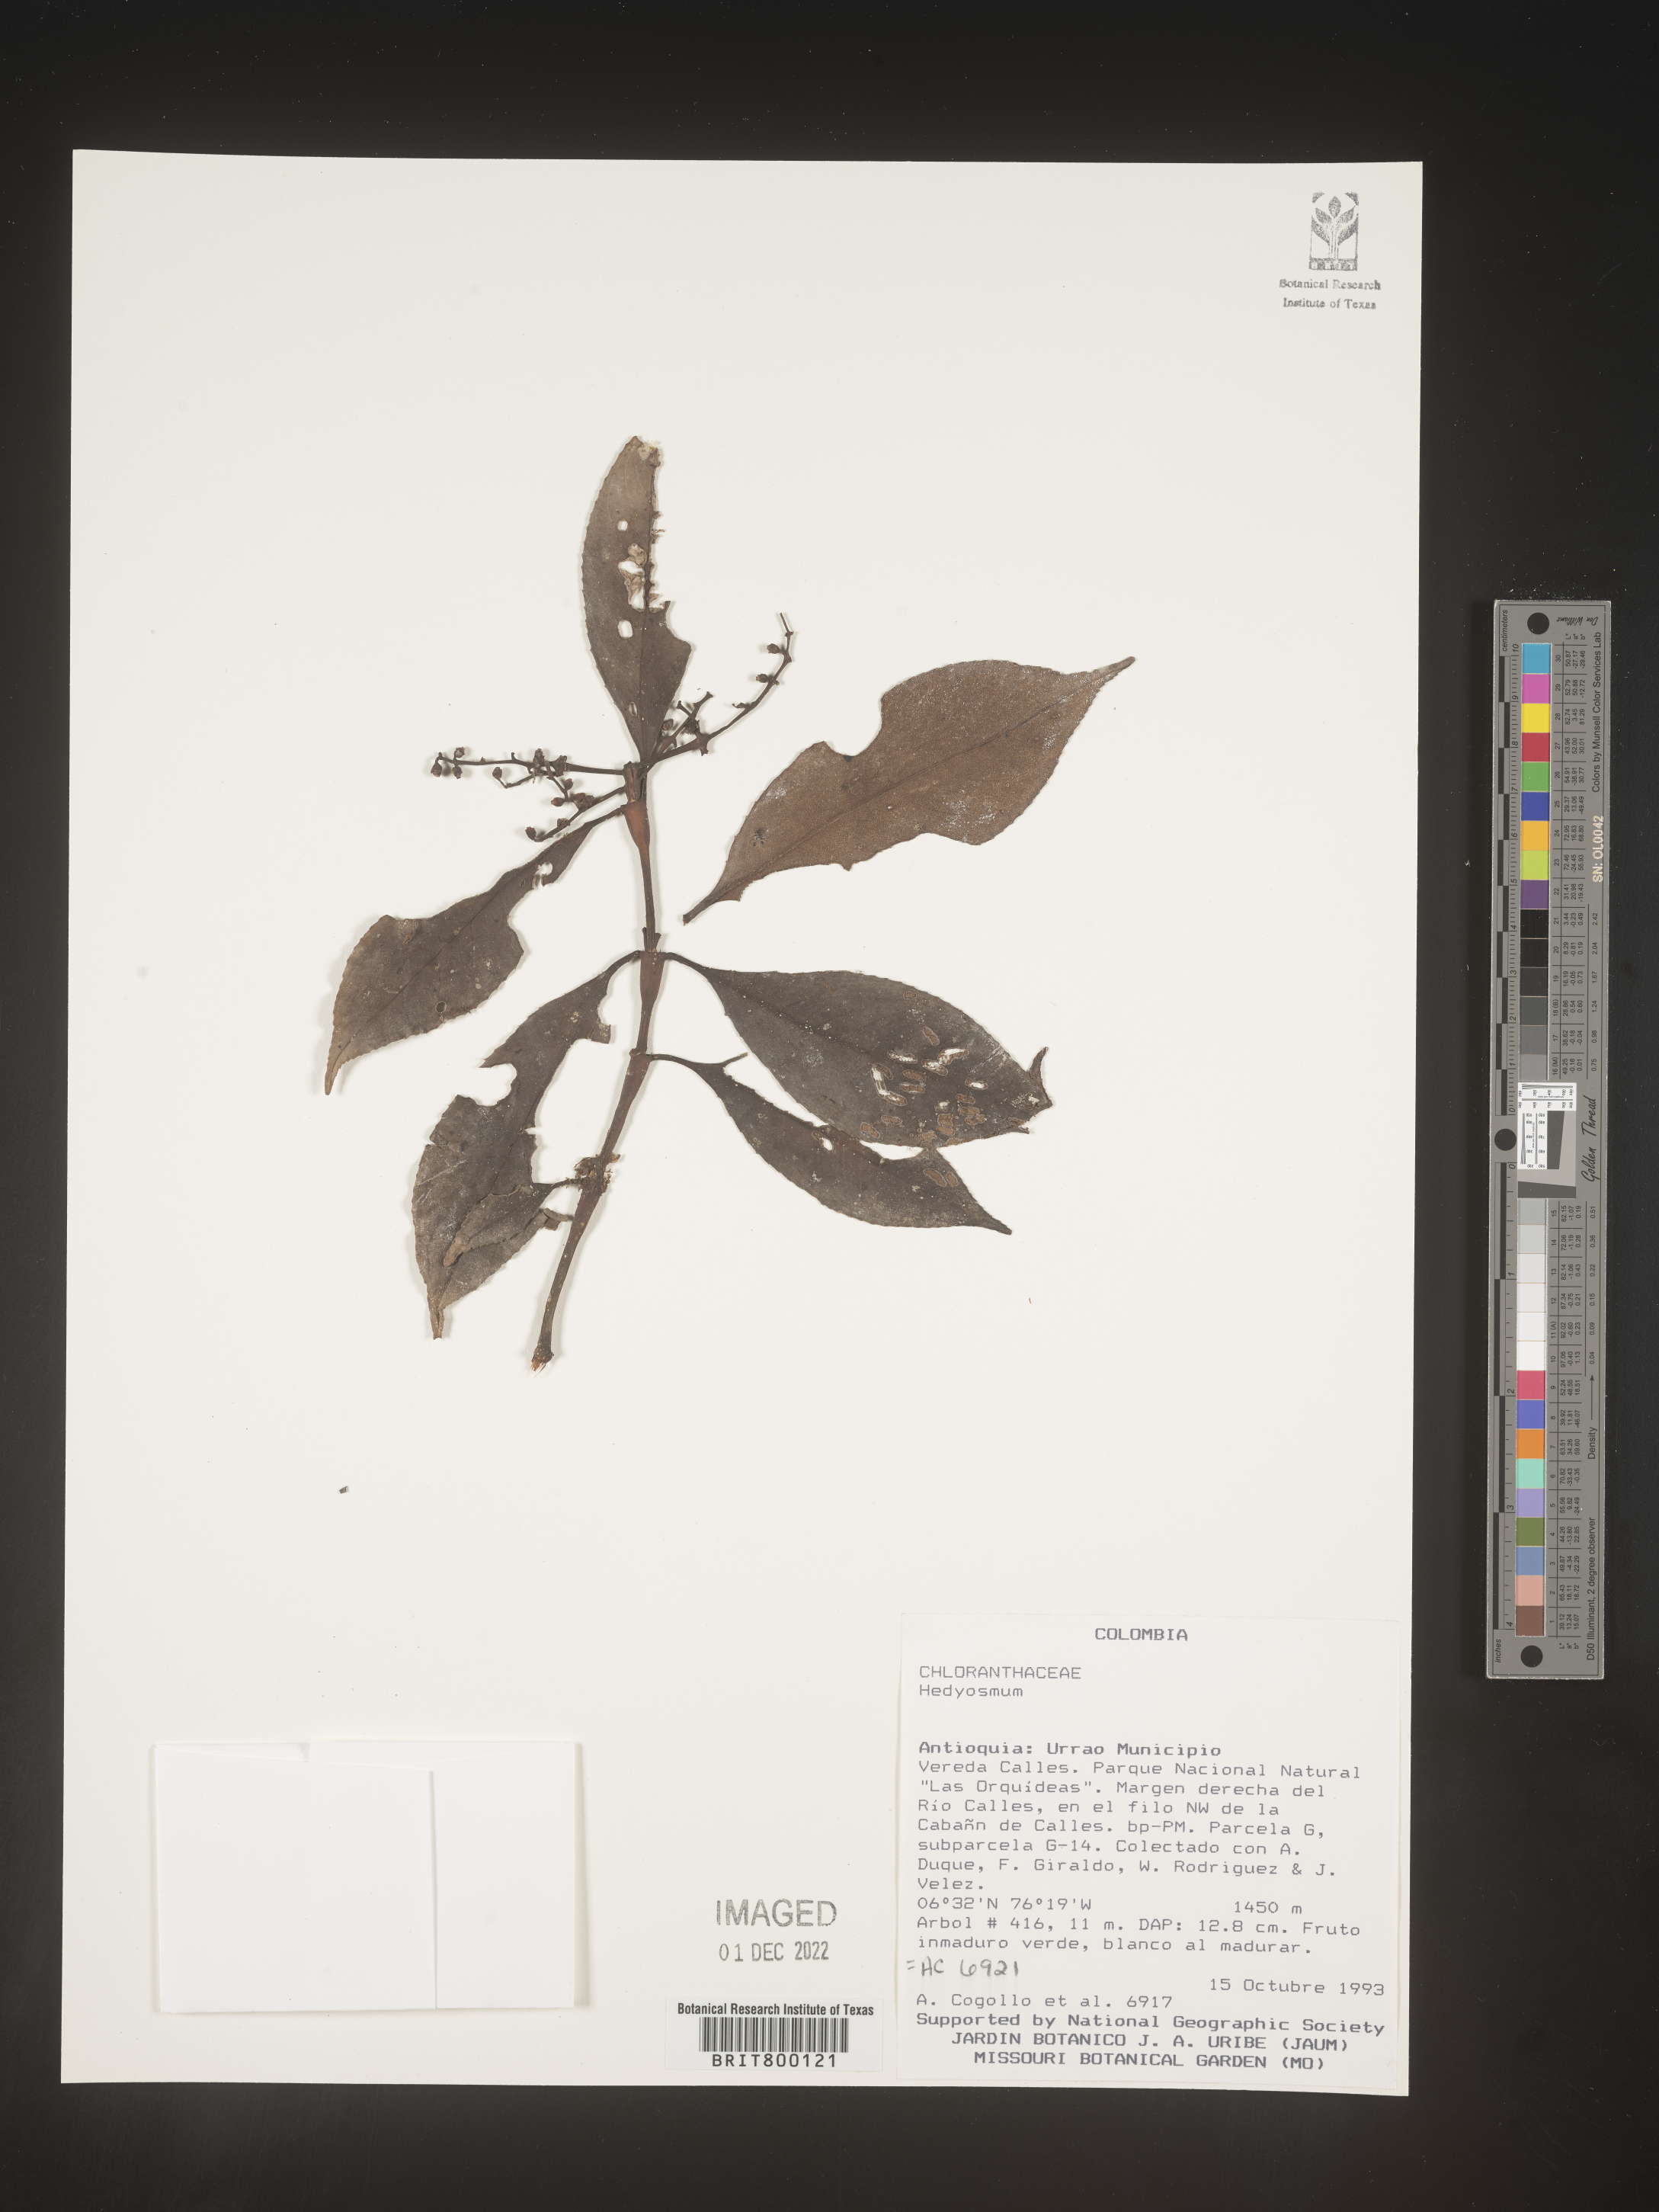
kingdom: Plantae
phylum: Tracheophyta
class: Magnoliopsida
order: Chloranthales
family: Chloranthaceae
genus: Hedyosmum
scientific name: Hedyosmum
